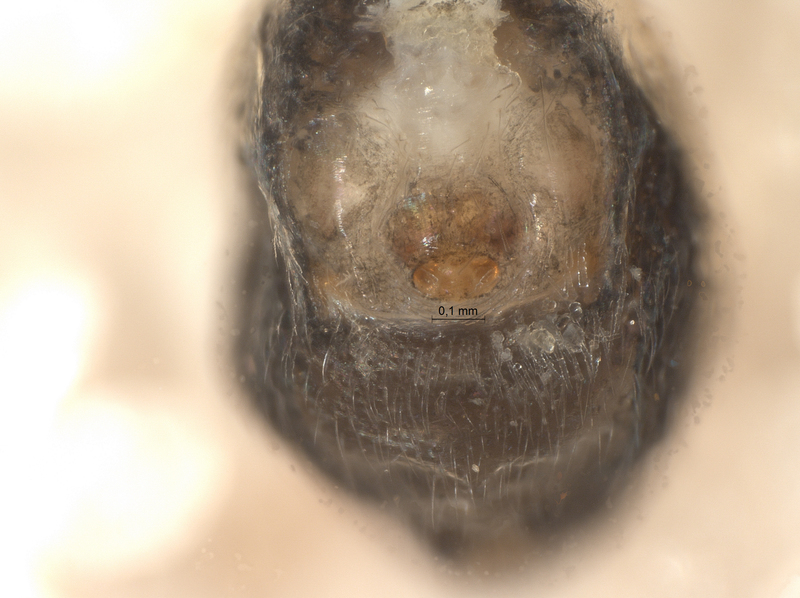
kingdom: Animalia
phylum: Arthropoda
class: Arachnida
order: Araneae
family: Theridiidae
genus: Euryopis
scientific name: Euryopis quinqueguttata
